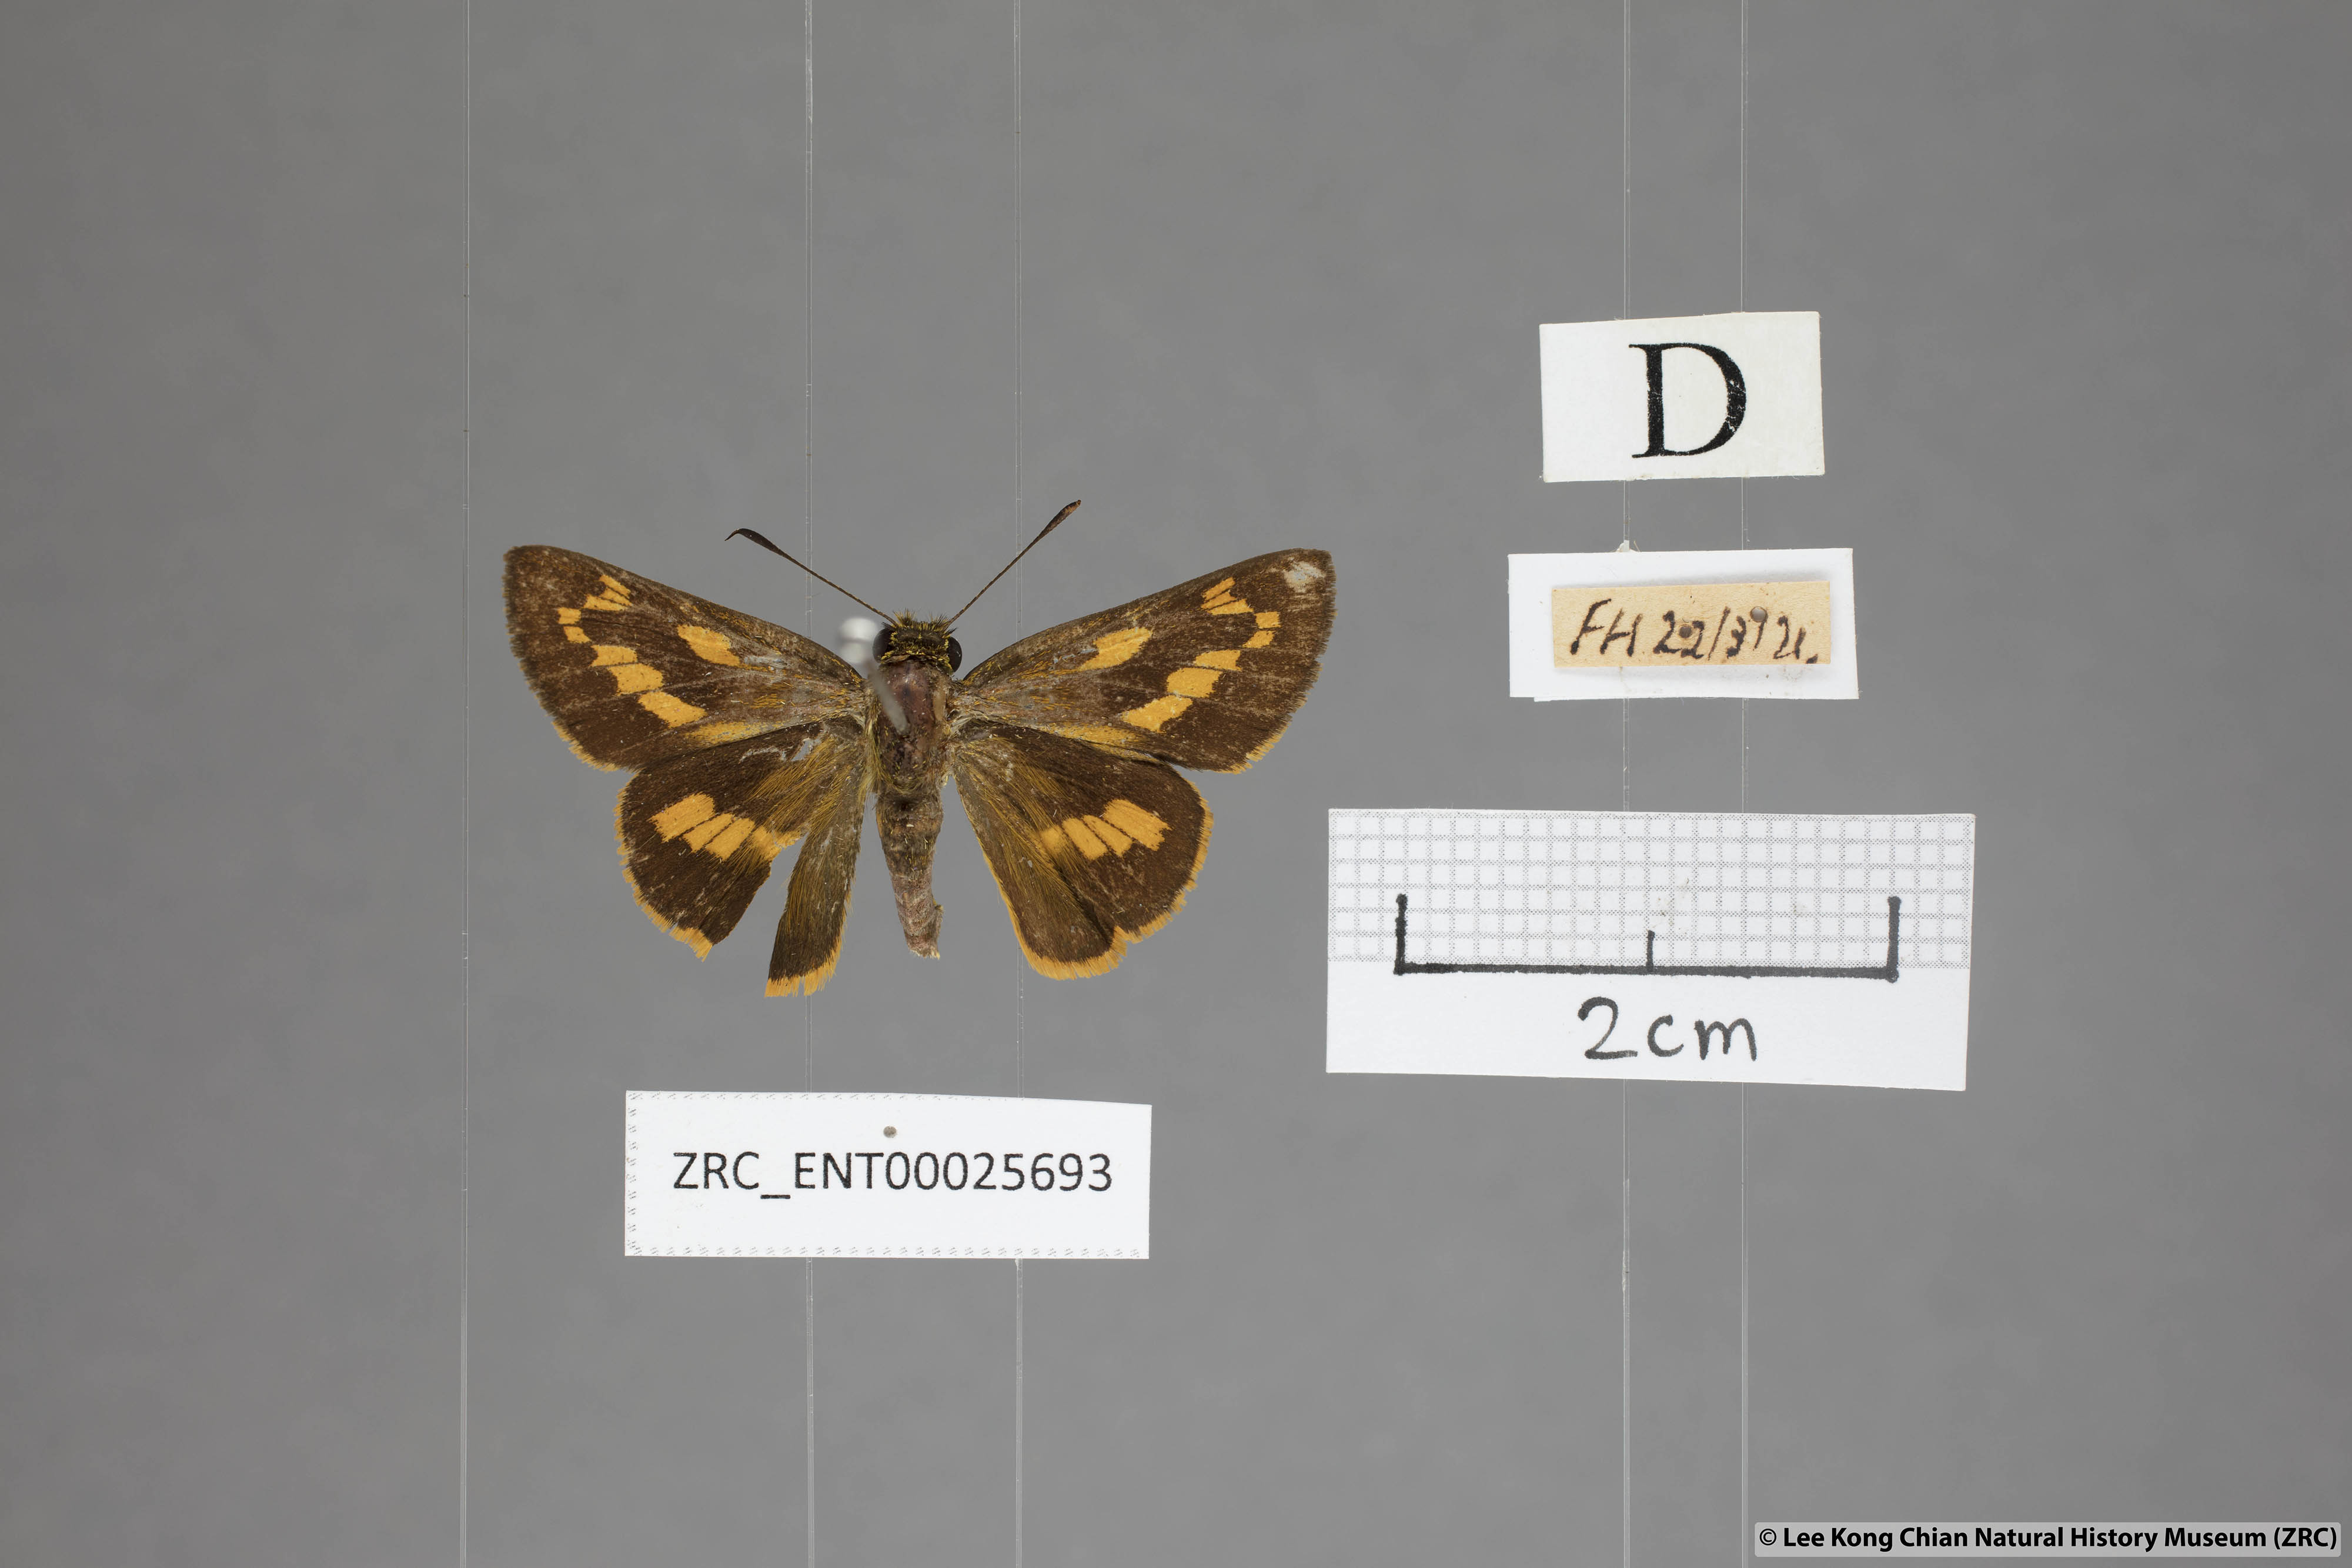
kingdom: Animalia
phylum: Arthropoda
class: Insecta
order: Lepidoptera
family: Hesperiidae
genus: Telicota
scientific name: Telicota ohara
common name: Dark palm dart
